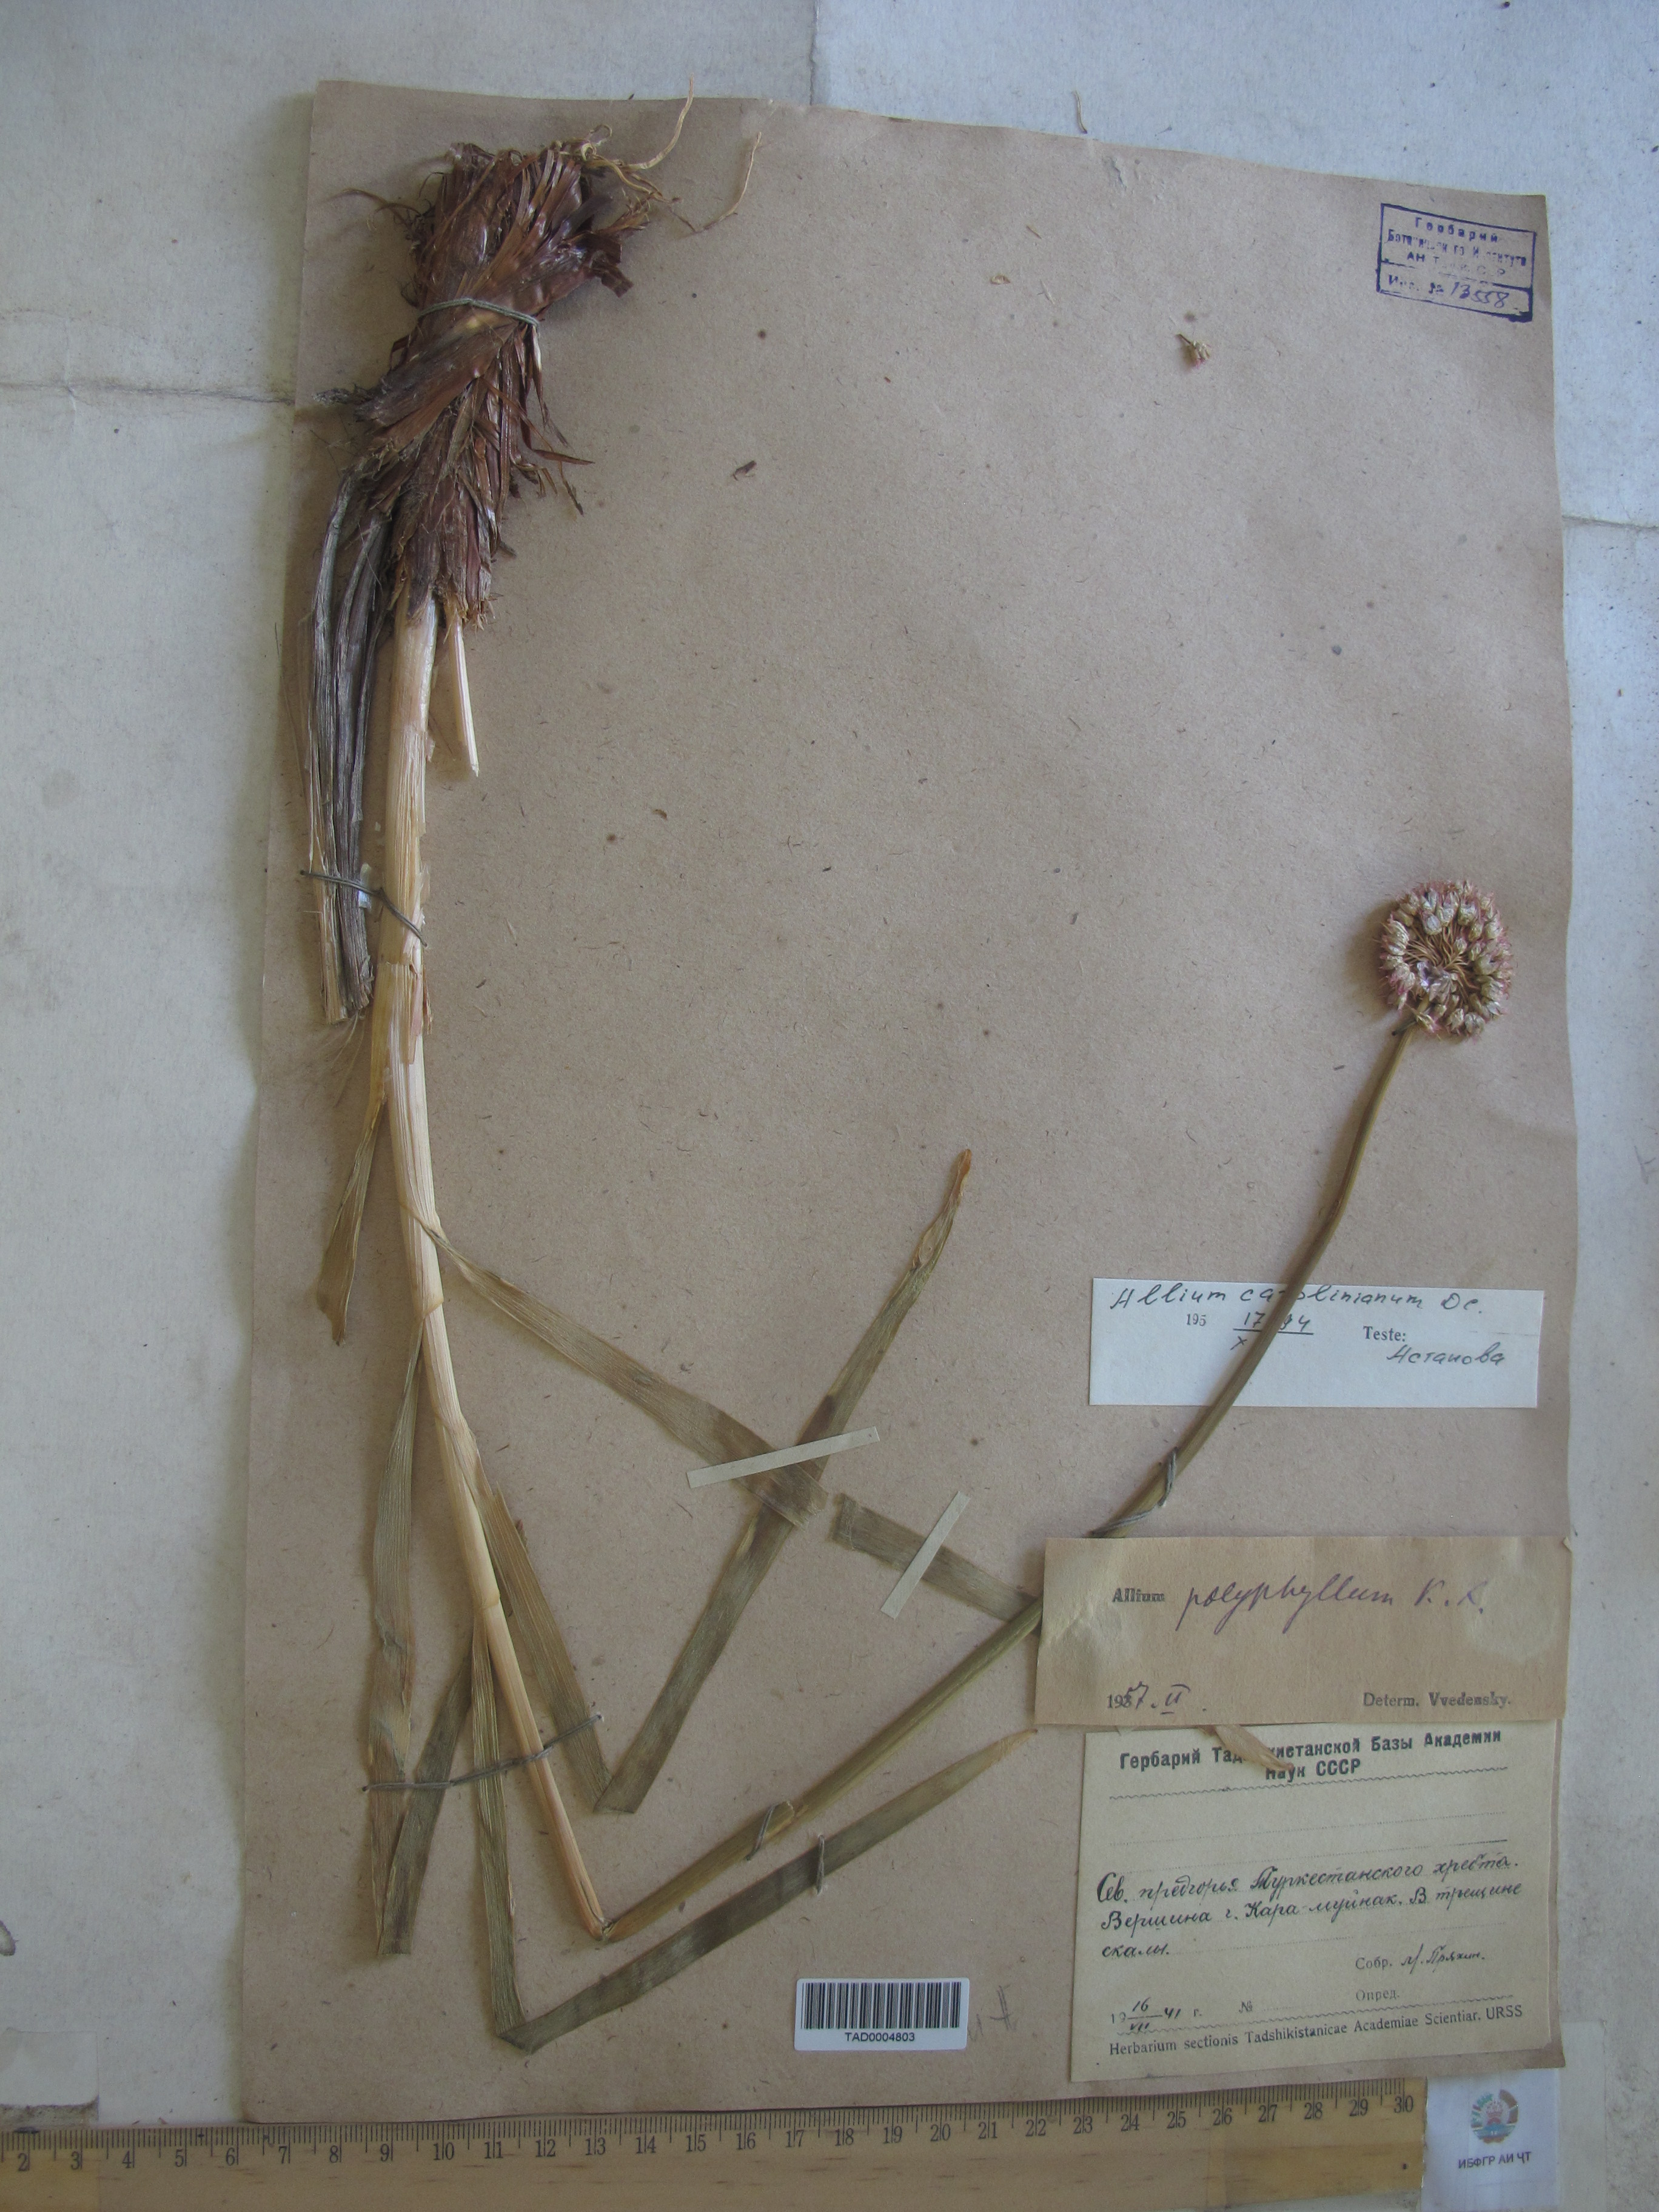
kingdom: Plantae
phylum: Tracheophyta
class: Liliopsida
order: Asparagales
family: Amaryllidaceae
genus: Allium
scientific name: Allium carolinianum
